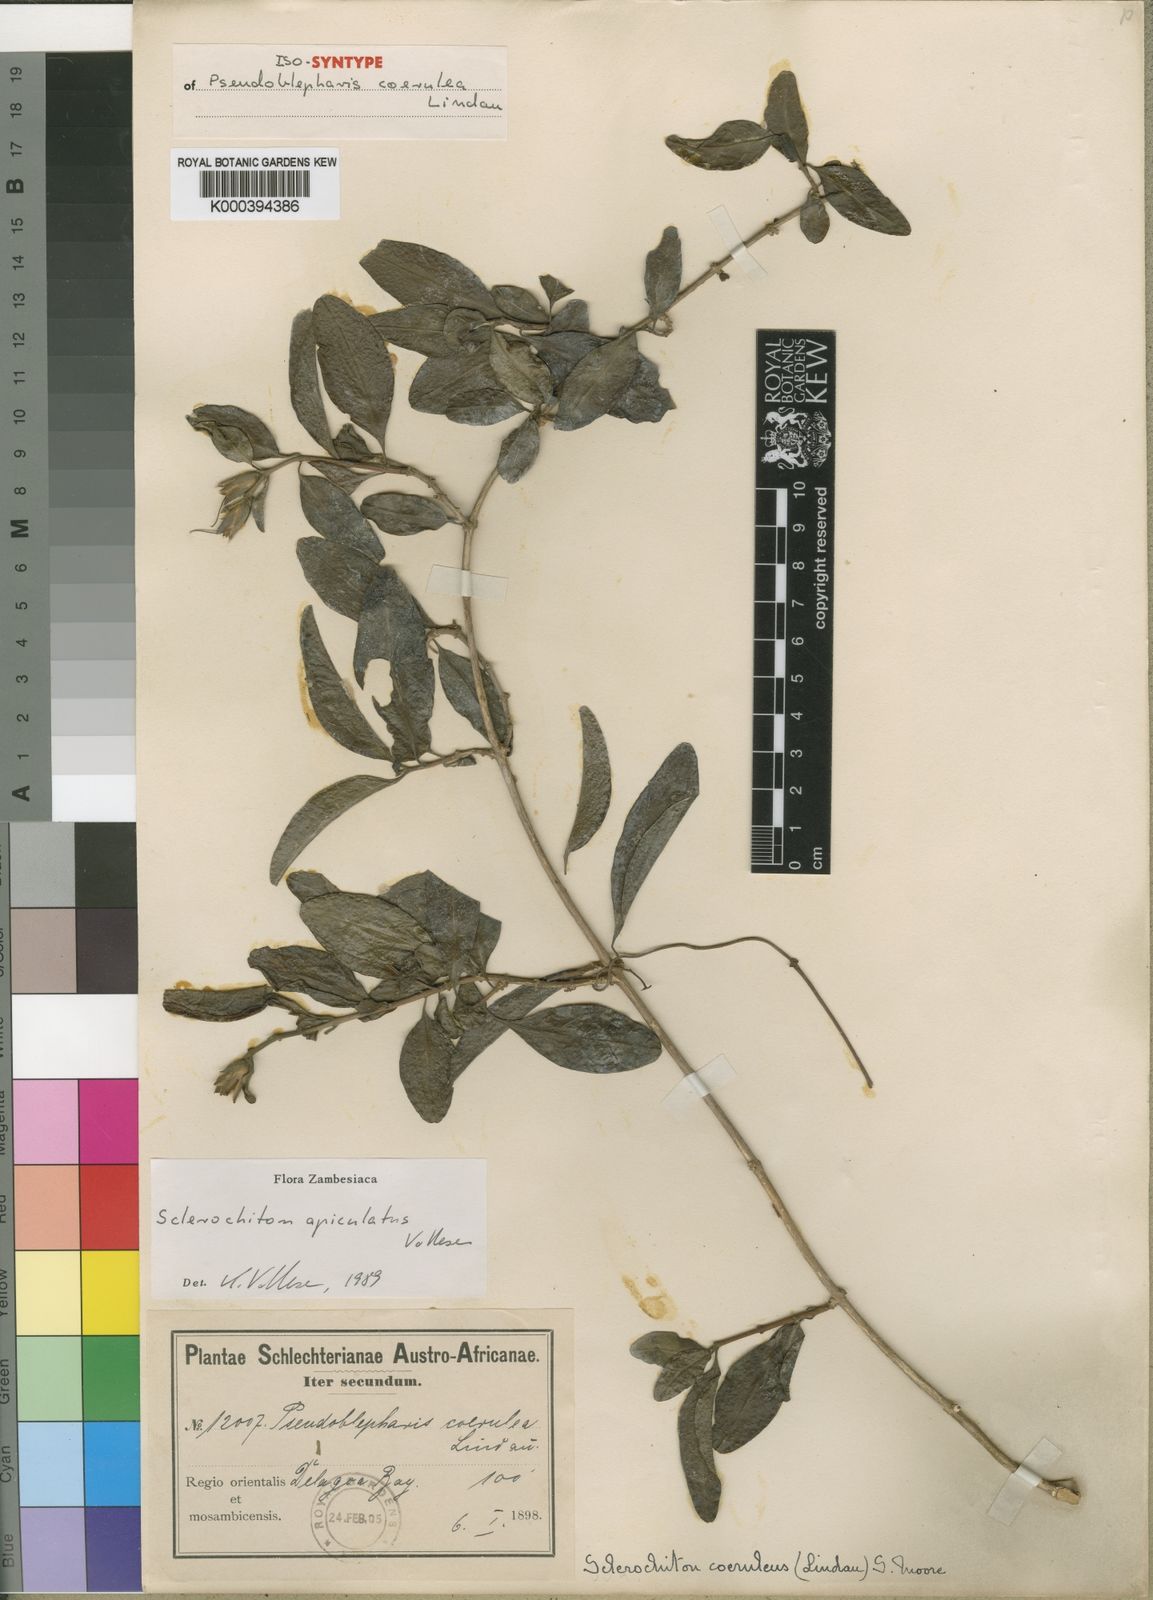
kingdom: Plantae
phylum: Tracheophyta
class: Magnoliopsida
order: Lamiales
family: Acanthaceae
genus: Sclerochiton
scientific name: Sclerochiton apiculatus
